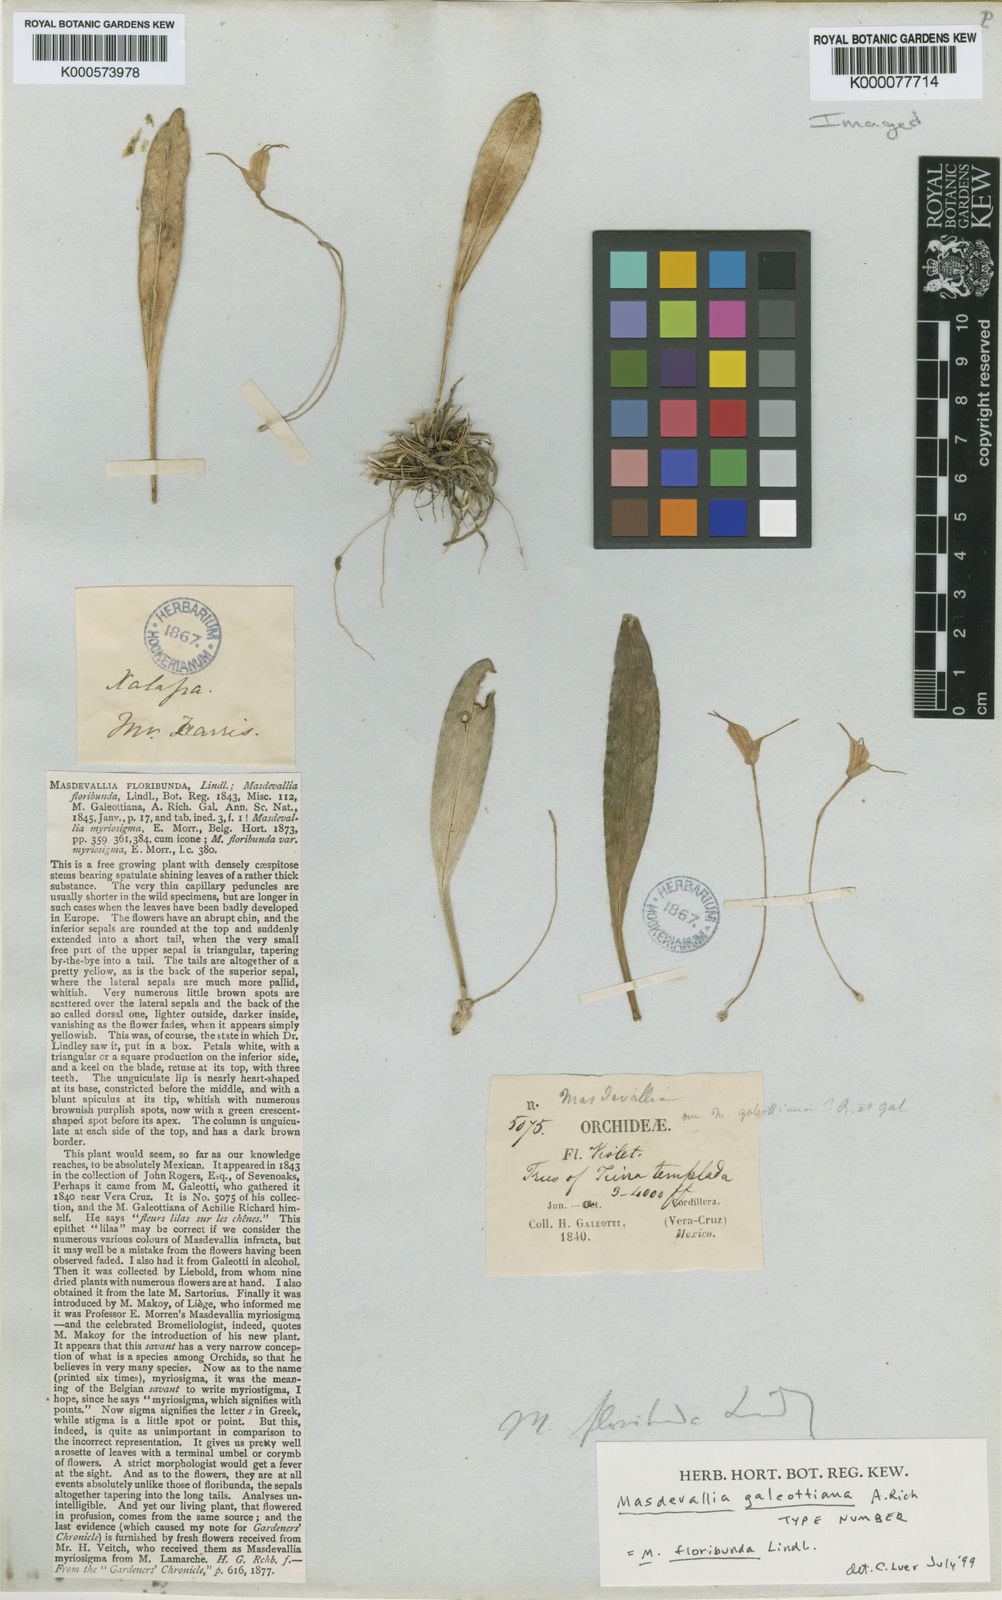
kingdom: Plantae
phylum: Tracheophyta
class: Liliopsida
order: Asparagales
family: Orchidaceae
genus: Masdevallia
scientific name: Masdevallia floribunda
